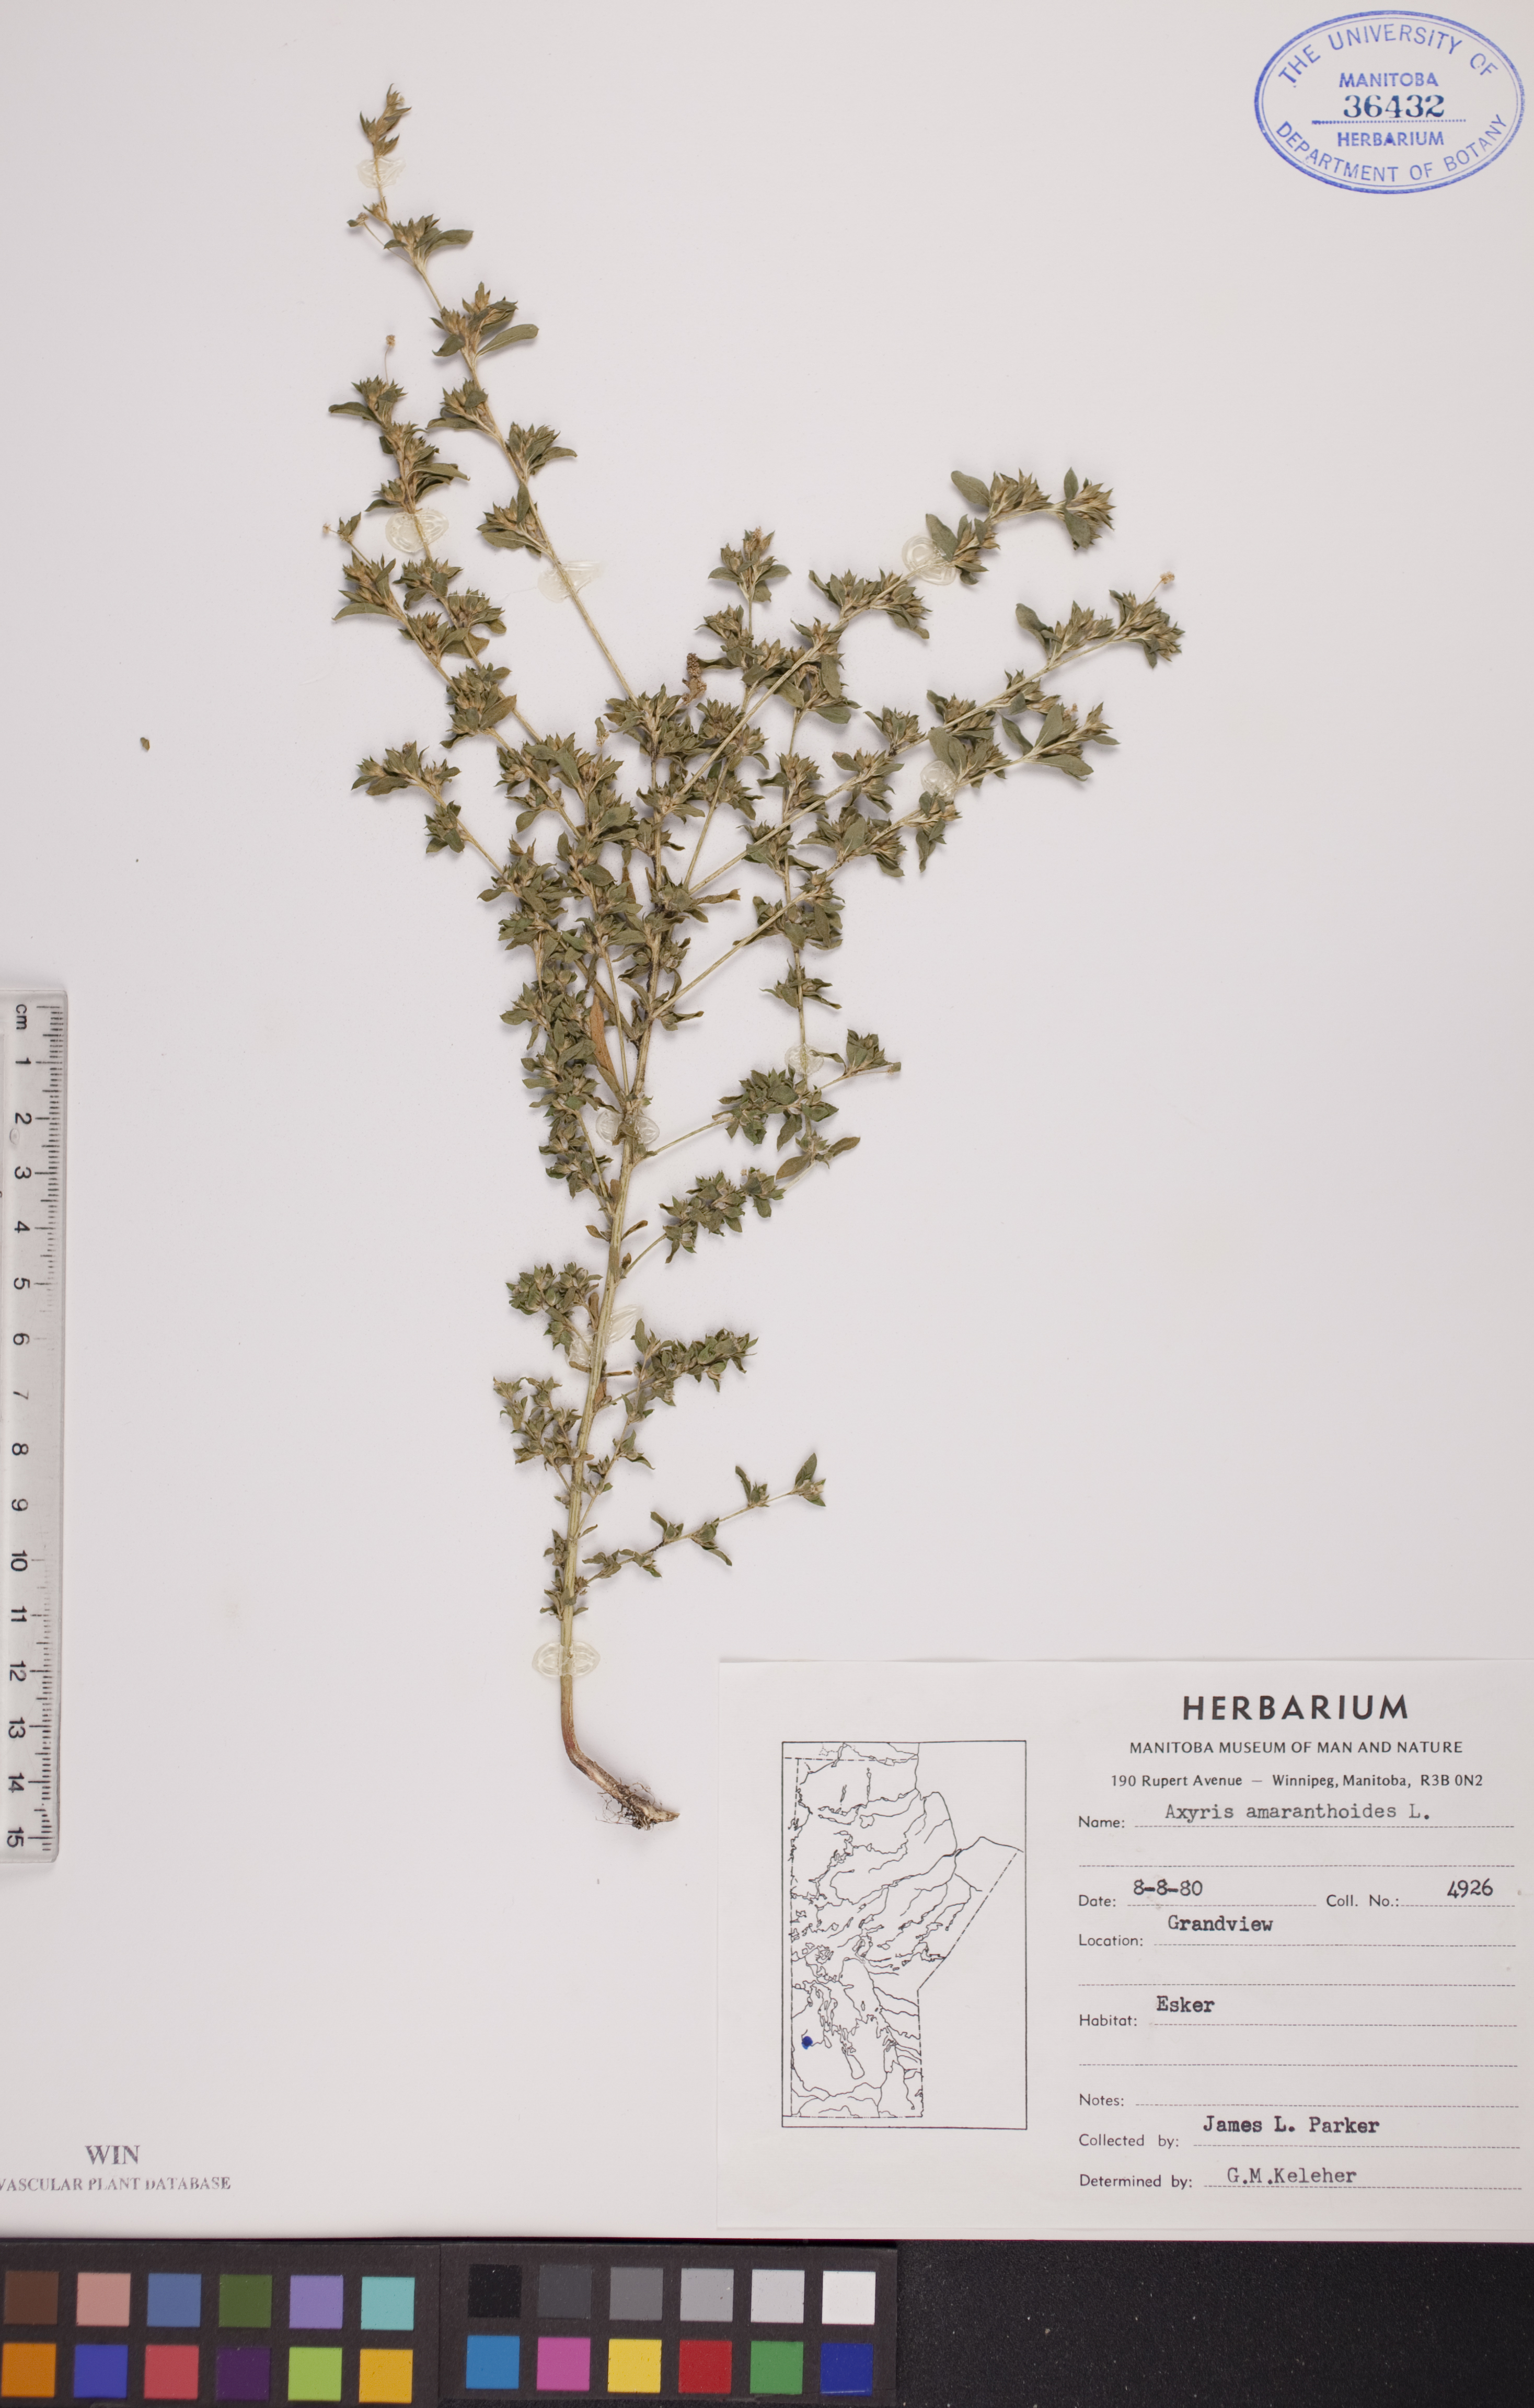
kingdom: Plantae
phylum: Tracheophyta
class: Magnoliopsida
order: Caryophyllales
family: Amaranthaceae
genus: Axyris
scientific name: Axyris amaranthoides
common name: Russian pigweed
